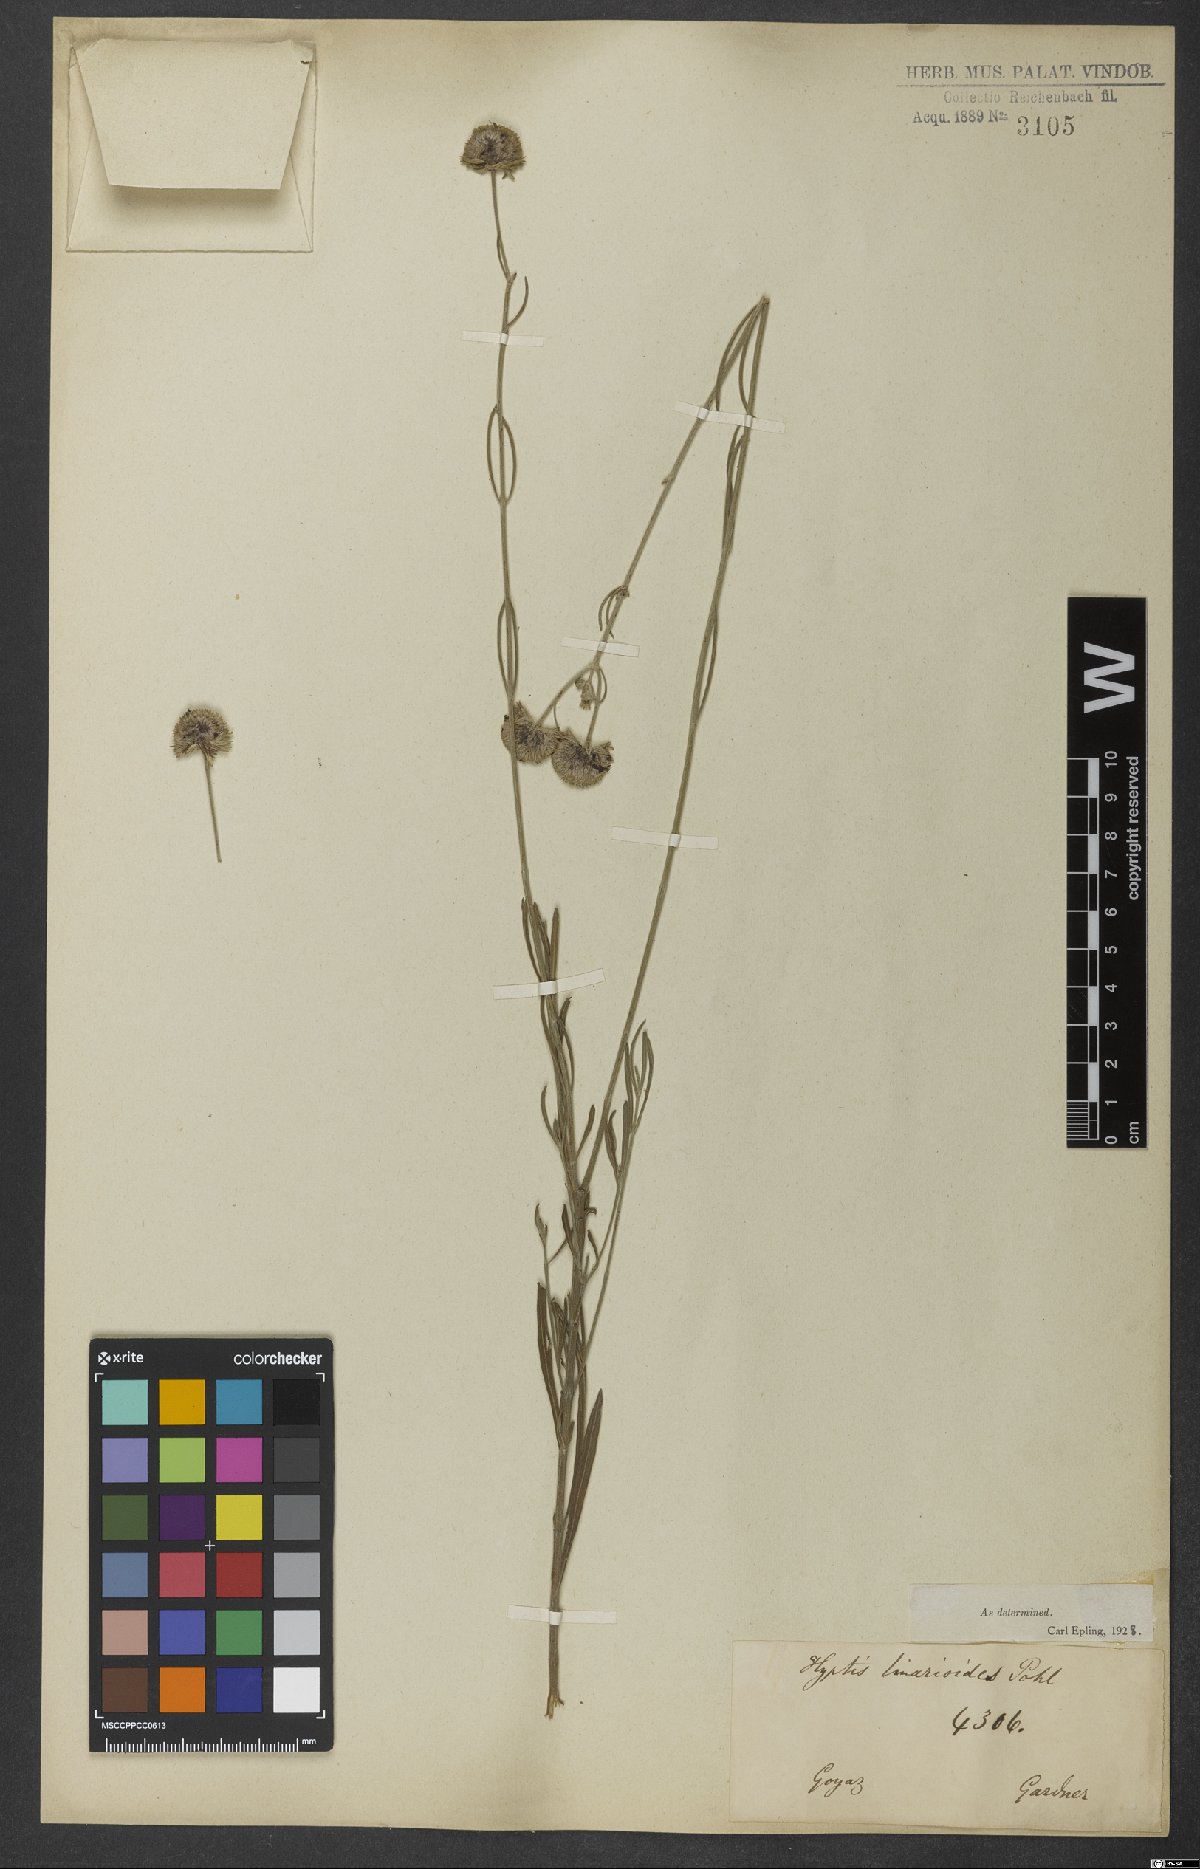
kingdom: Plantae
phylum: Tracheophyta
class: Magnoliopsida
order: Lamiales
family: Lamiaceae
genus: Hyptis
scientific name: Hyptis linarioides
